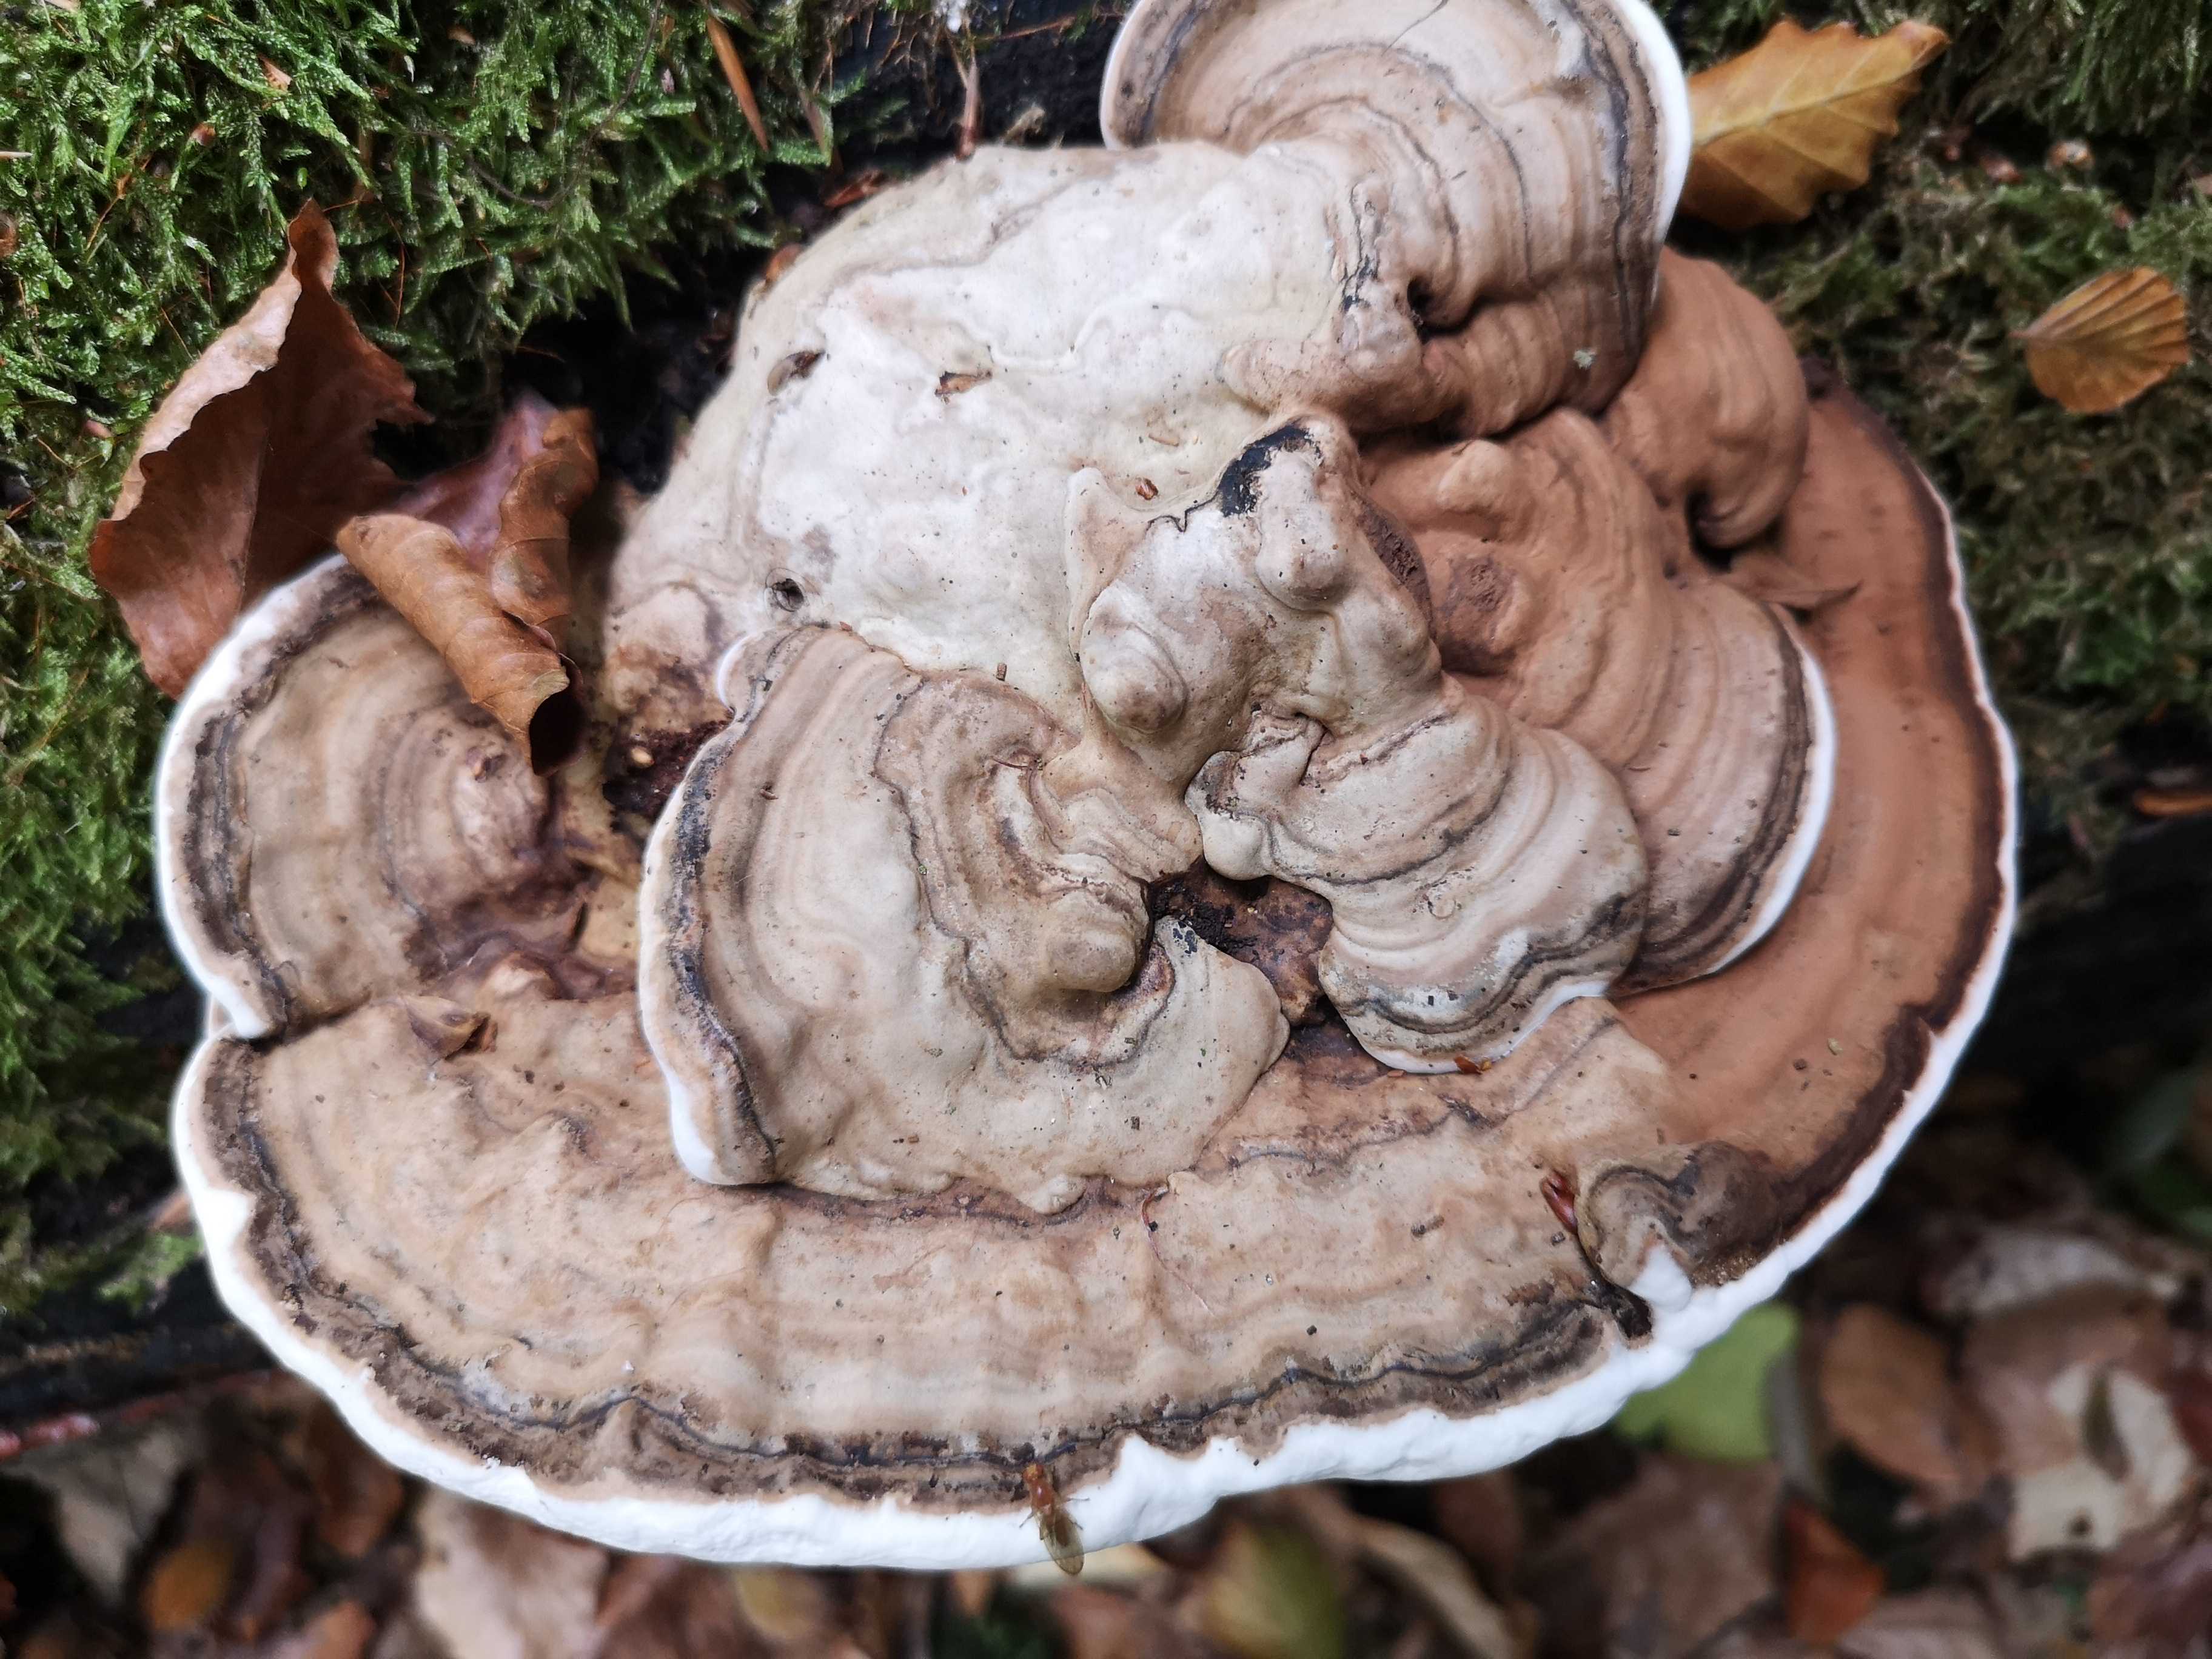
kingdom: Fungi
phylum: Basidiomycota
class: Agaricomycetes
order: Polyporales
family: Polyporaceae
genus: Ganoderma
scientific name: Ganoderma applanatum
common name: flad lakporesvamp
